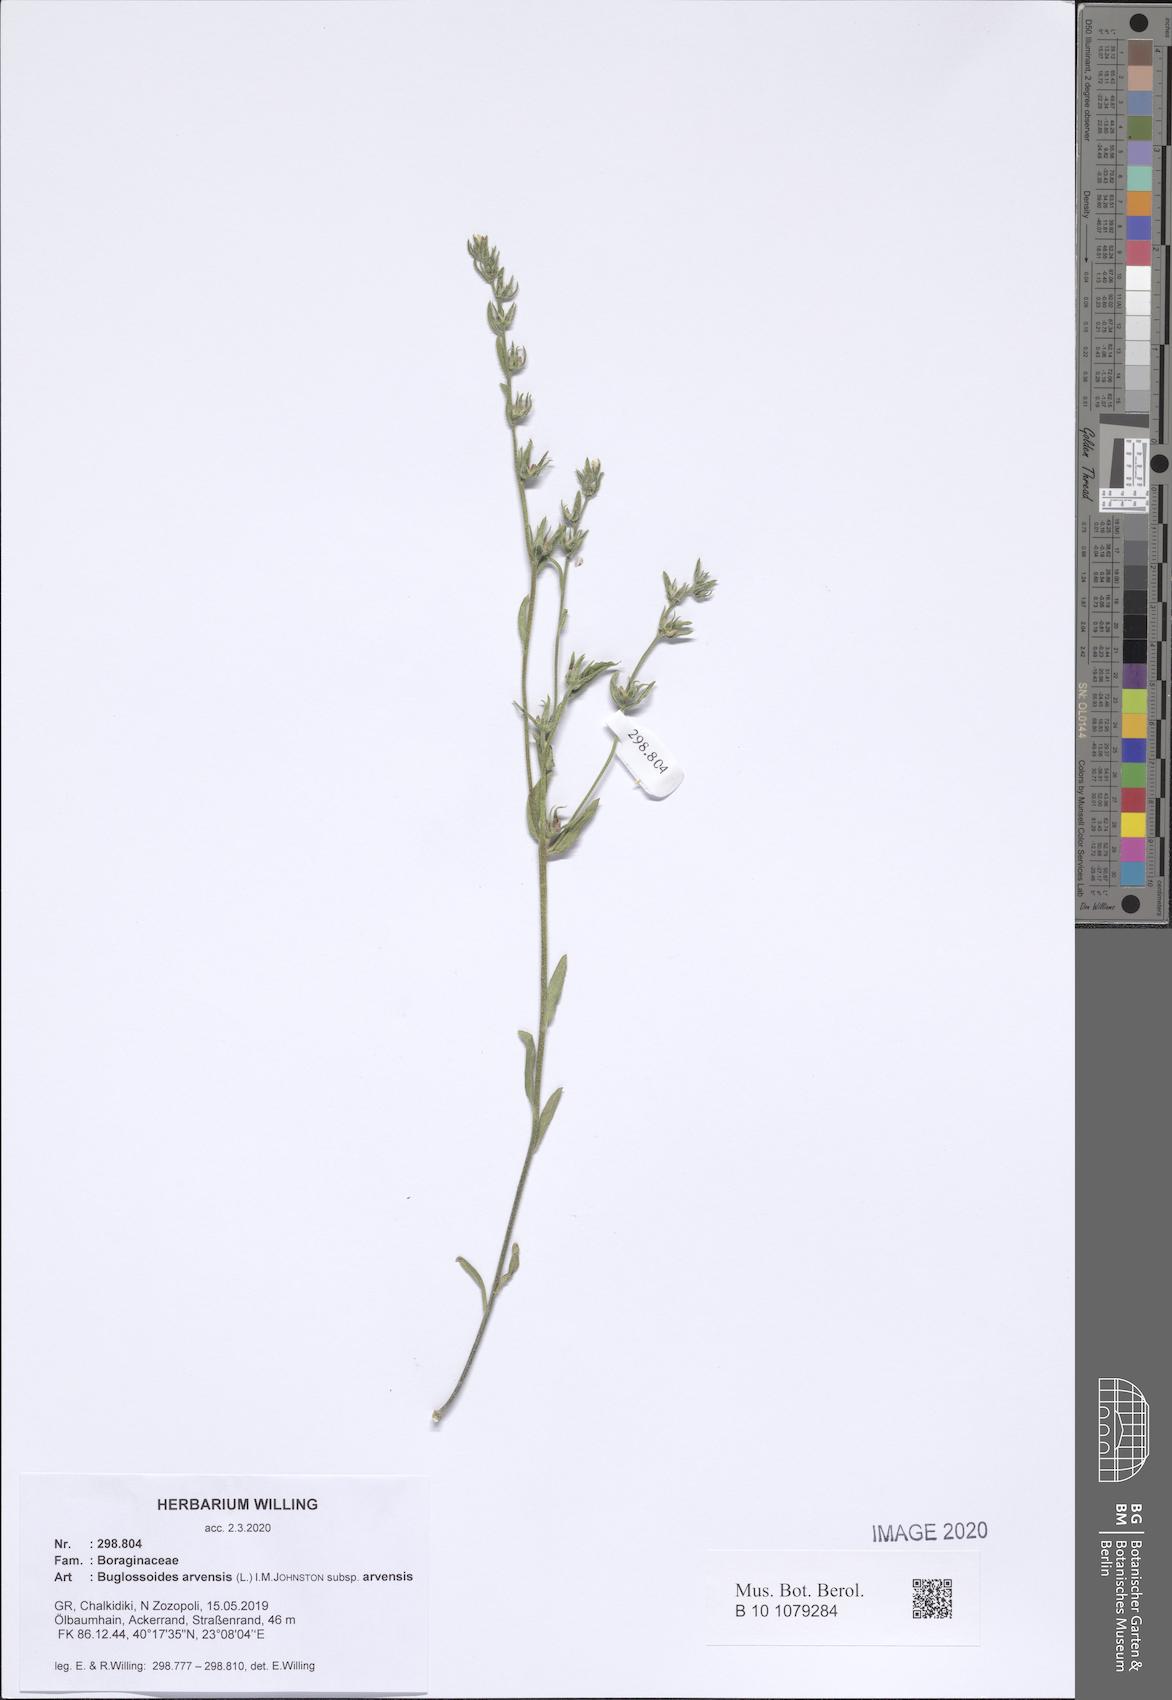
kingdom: Plantae
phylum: Tracheophyta
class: Magnoliopsida
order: Boraginales
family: Boraginaceae
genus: Buglossoides
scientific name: Buglossoides arvensis
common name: Corn gromwell
